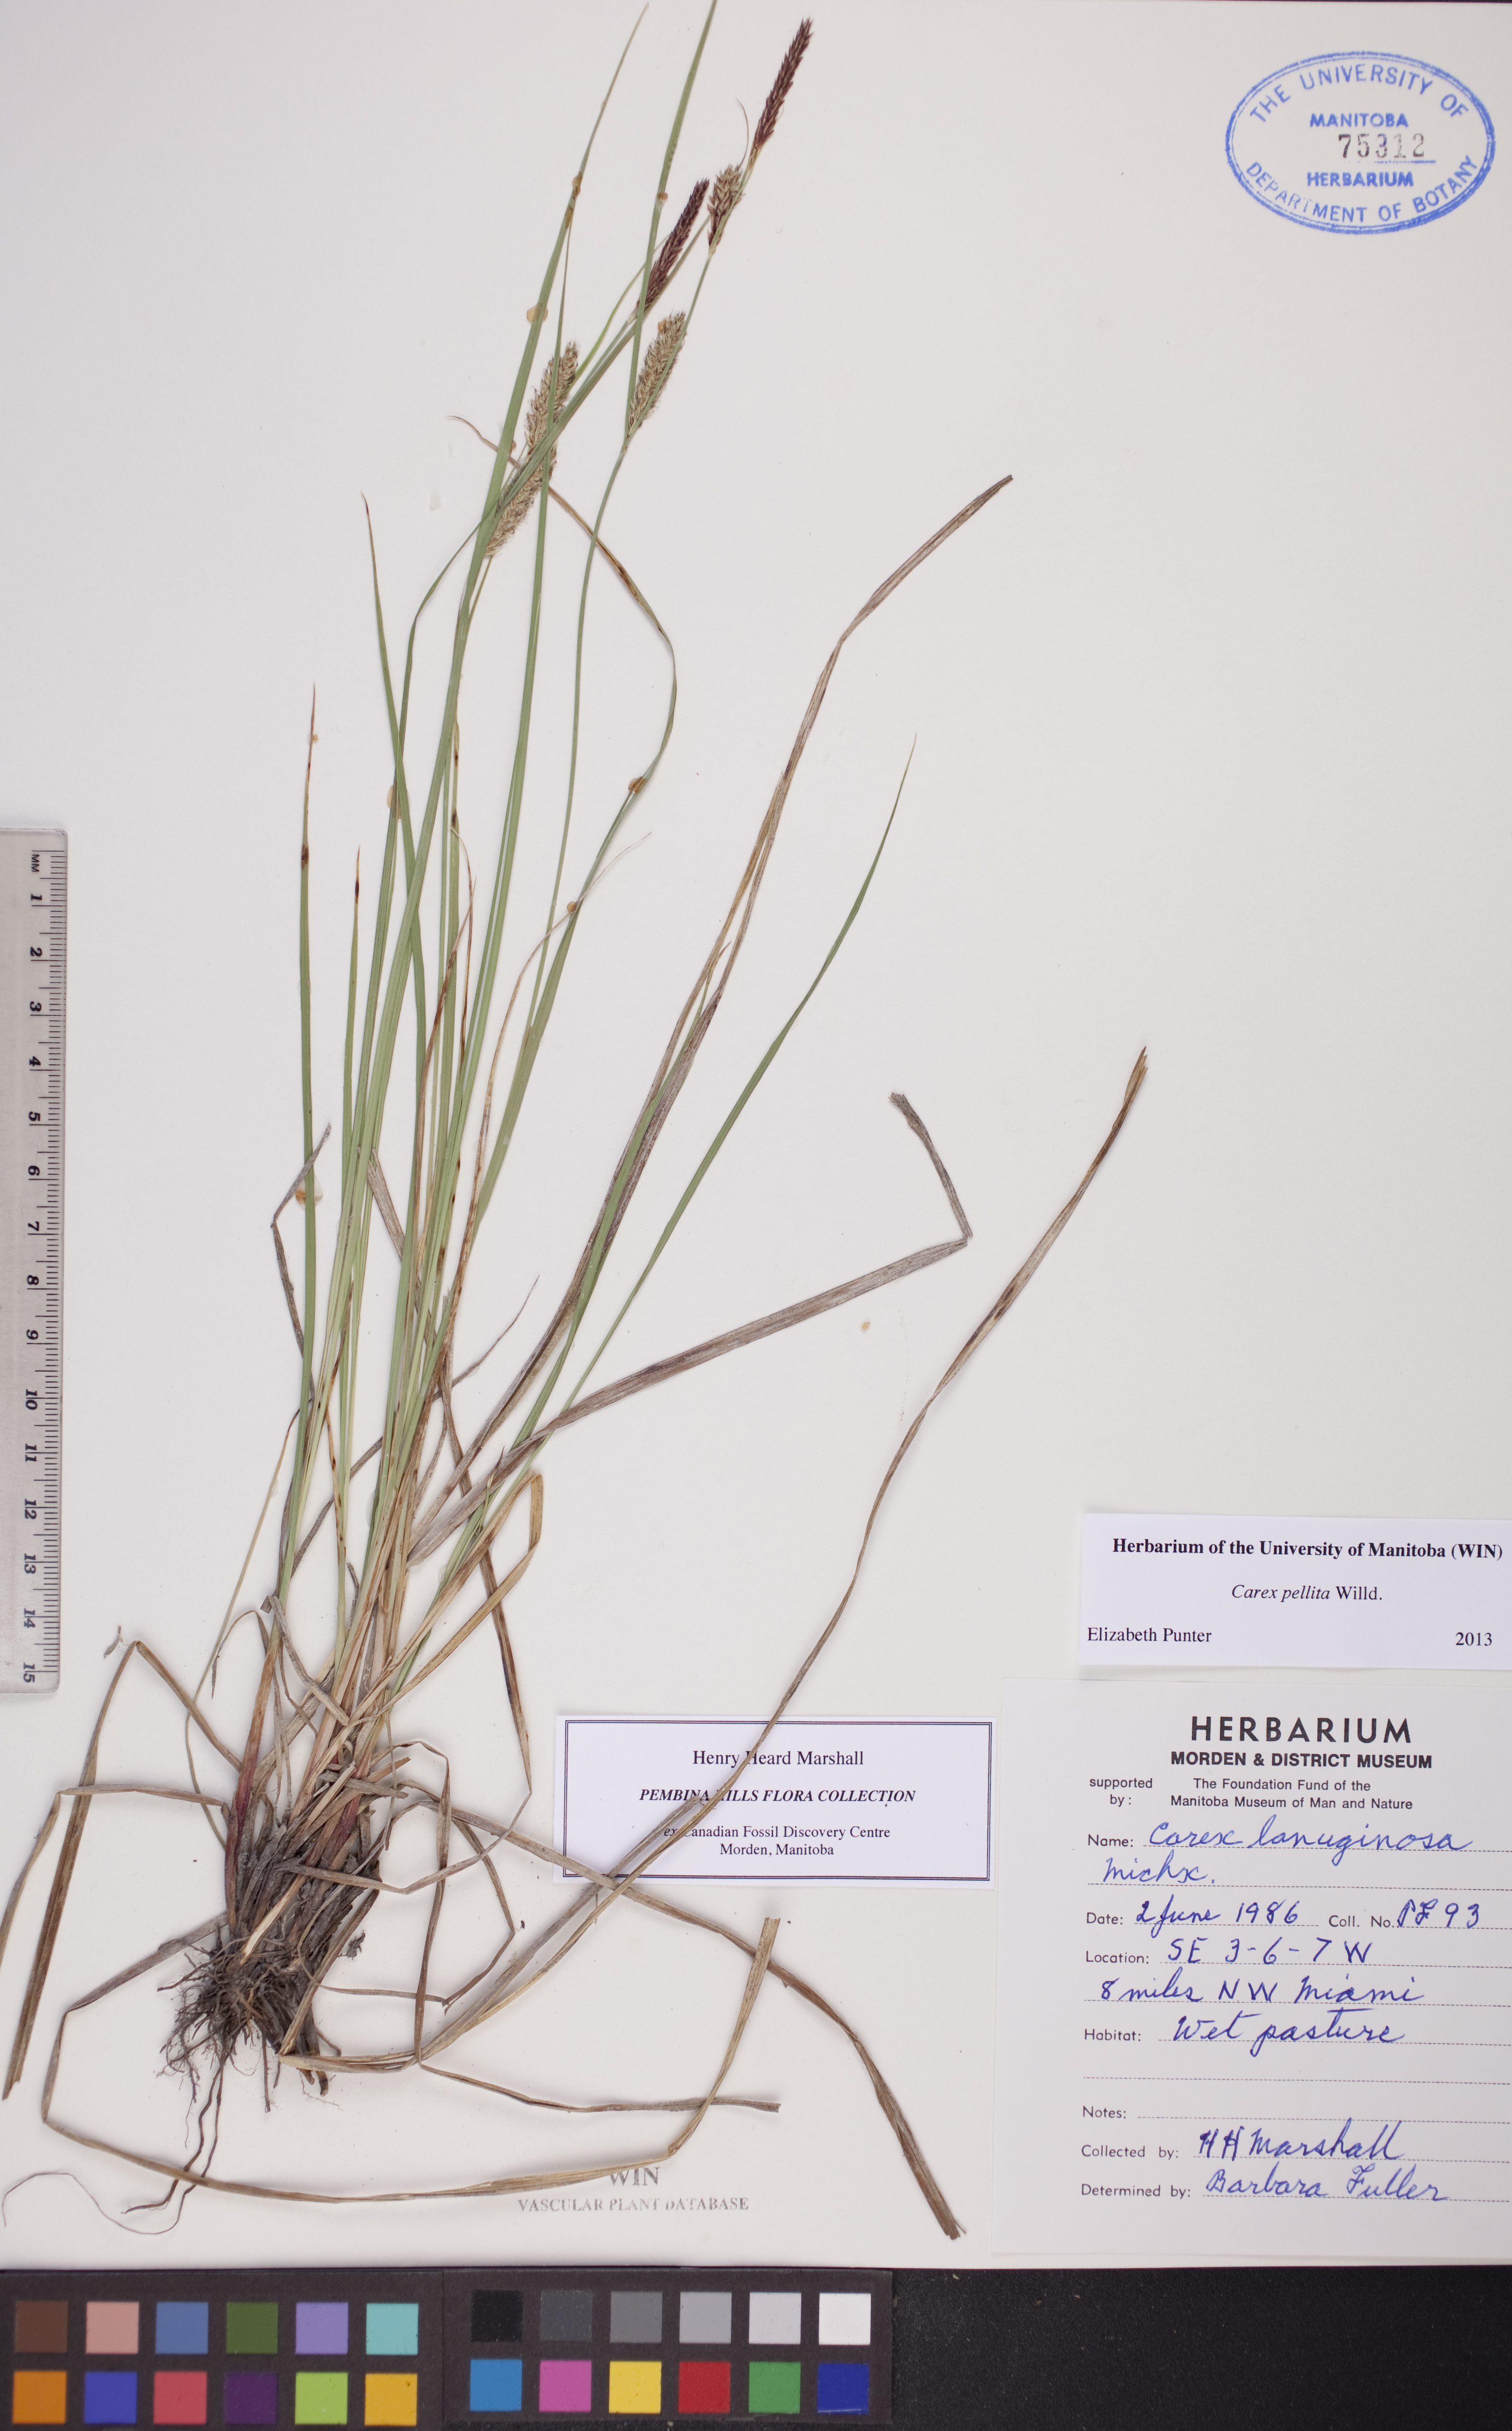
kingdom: Plantae
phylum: Tracheophyta
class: Liliopsida
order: Poales
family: Cyperaceae
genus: Carex
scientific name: Carex pellita
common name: Woolly sedge
